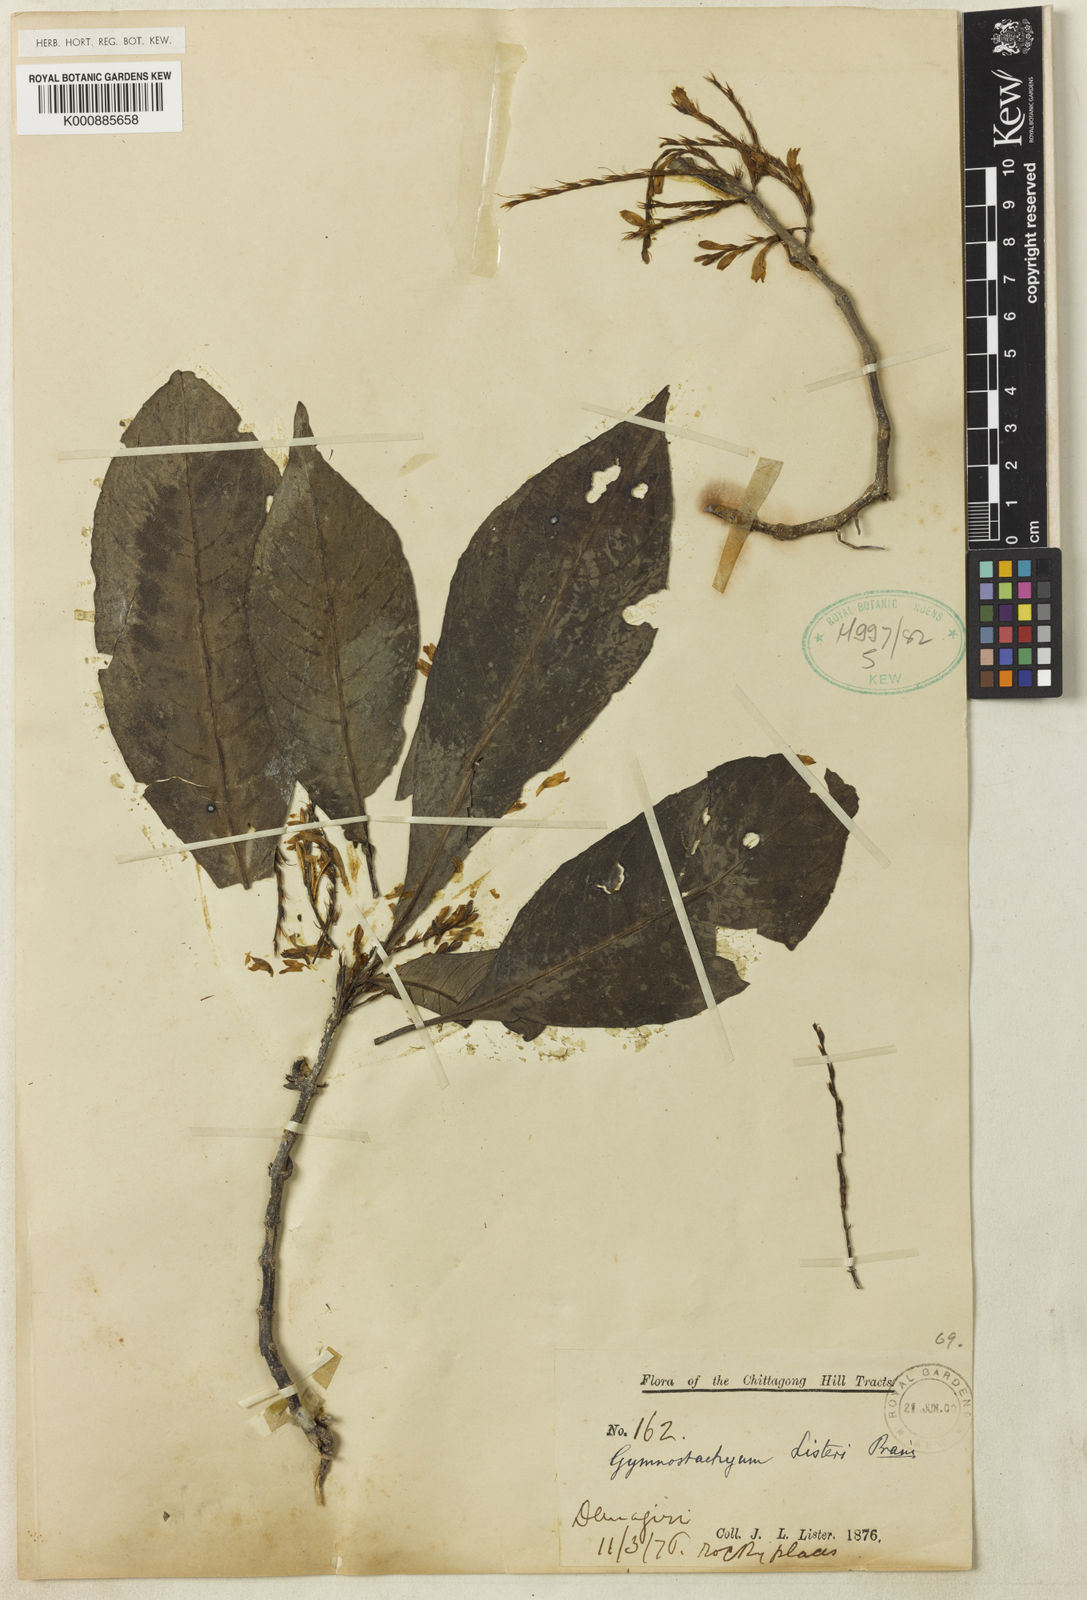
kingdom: Plantae
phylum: Tracheophyta
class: Magnoliopsida
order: Lamiales
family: Acanthaceae
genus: Gymnostachyum
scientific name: Gymnostachyum listeri
